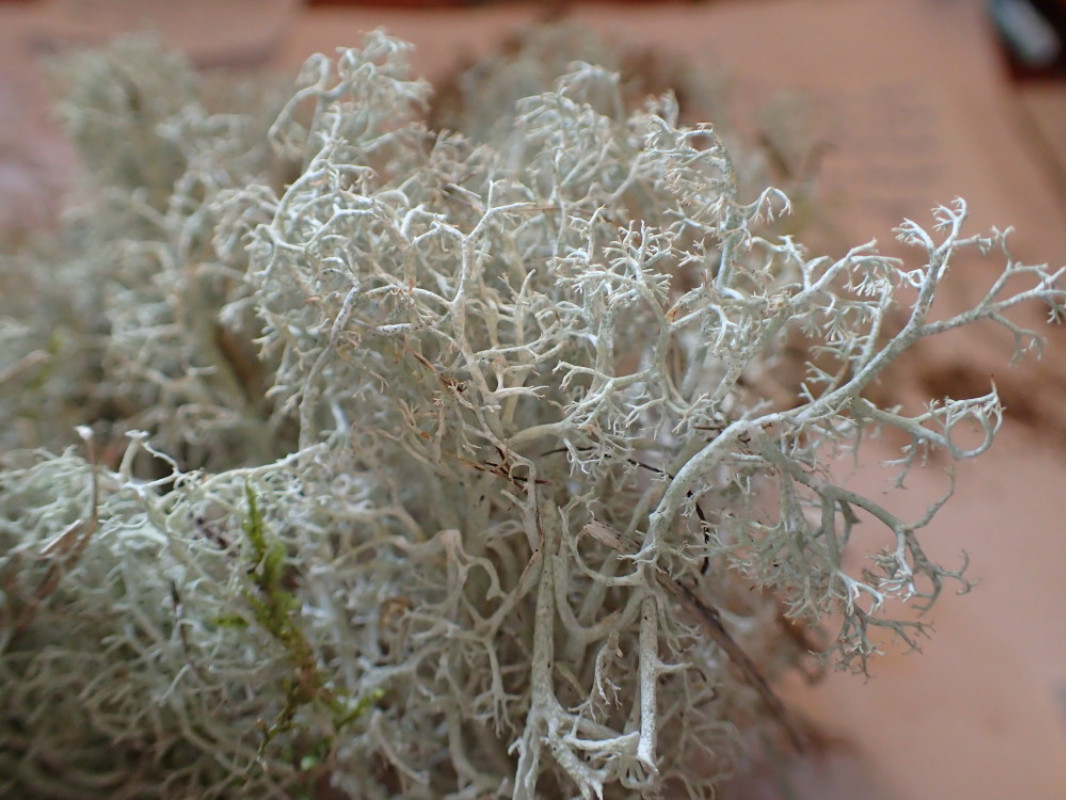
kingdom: Fungi
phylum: Ascomycota
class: Lecanoromycetes
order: Lecanorales
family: Cladoniaceae
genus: Cladonia
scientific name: Cladonia mitis
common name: mild rensdyrlav
